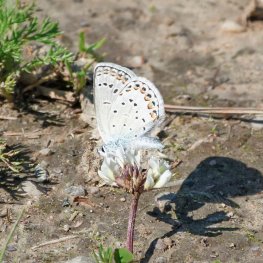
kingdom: Animalia
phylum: Arthropoda
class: Insecta
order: Lepidoptera
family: Lycaenidae
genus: Lycaeides
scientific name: Lycaeides melissa
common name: Melissa Blue
